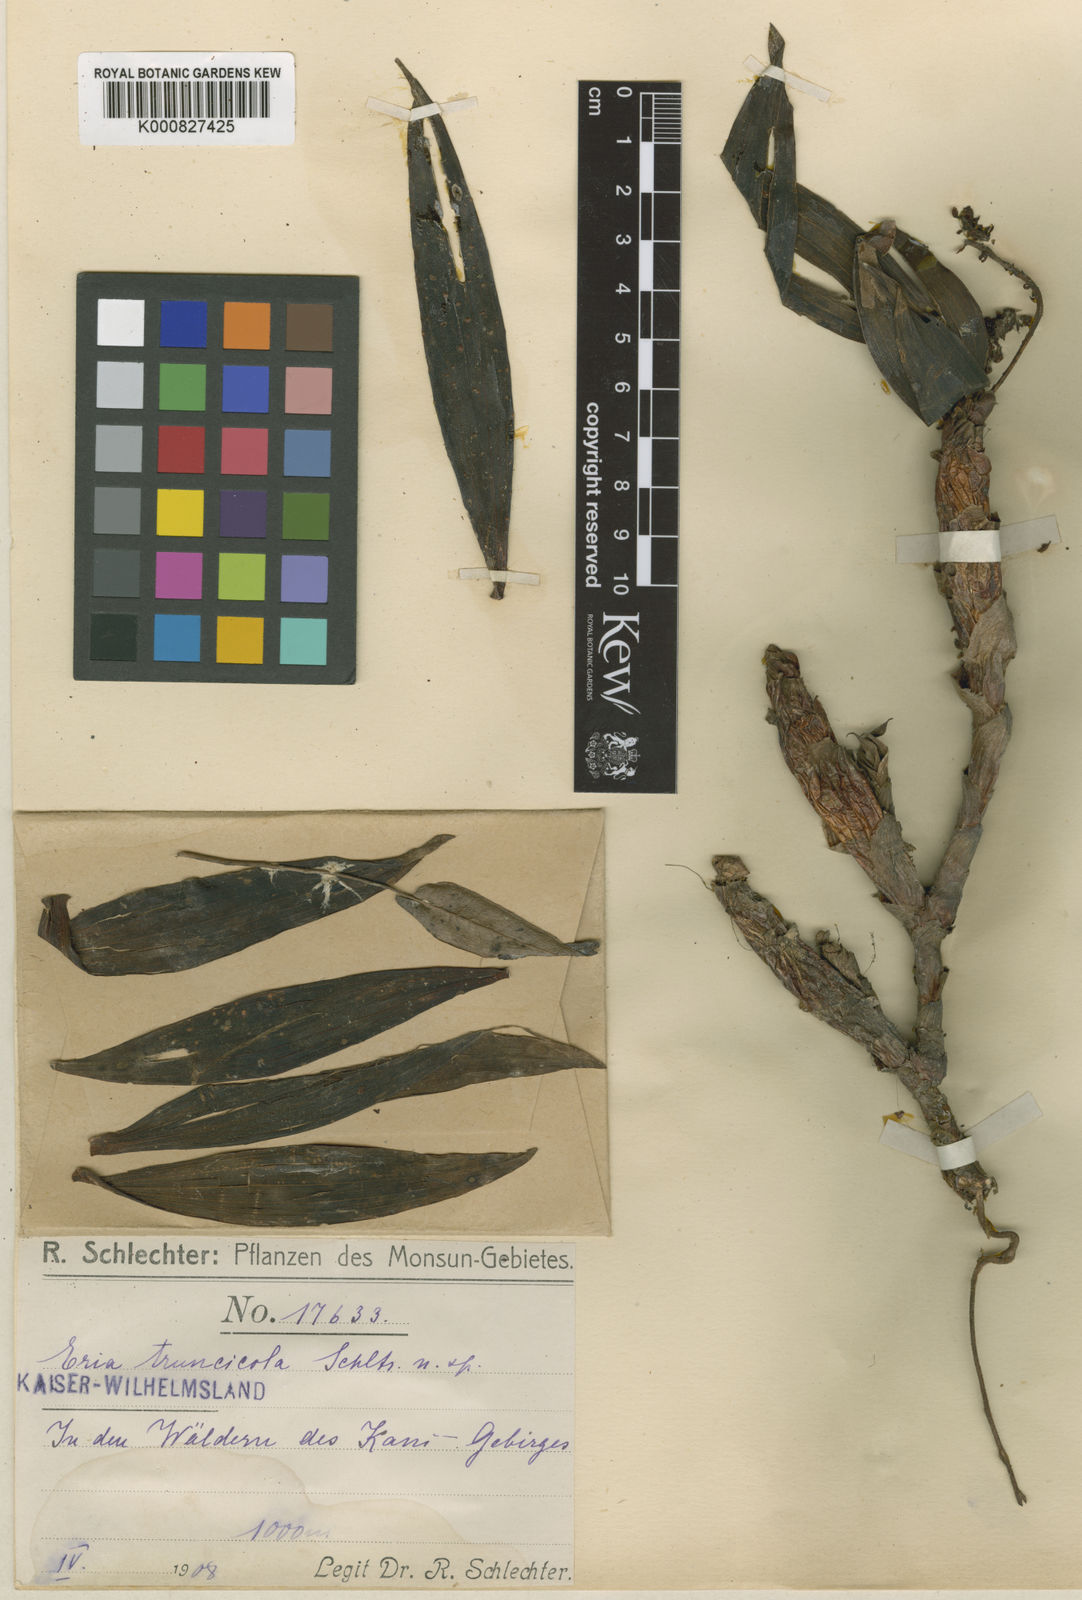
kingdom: Plantae
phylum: Tracheophyta
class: Liliopsida
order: Asparagales
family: Orchidaceae
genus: Pinalia
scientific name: Pinalia truncicola
